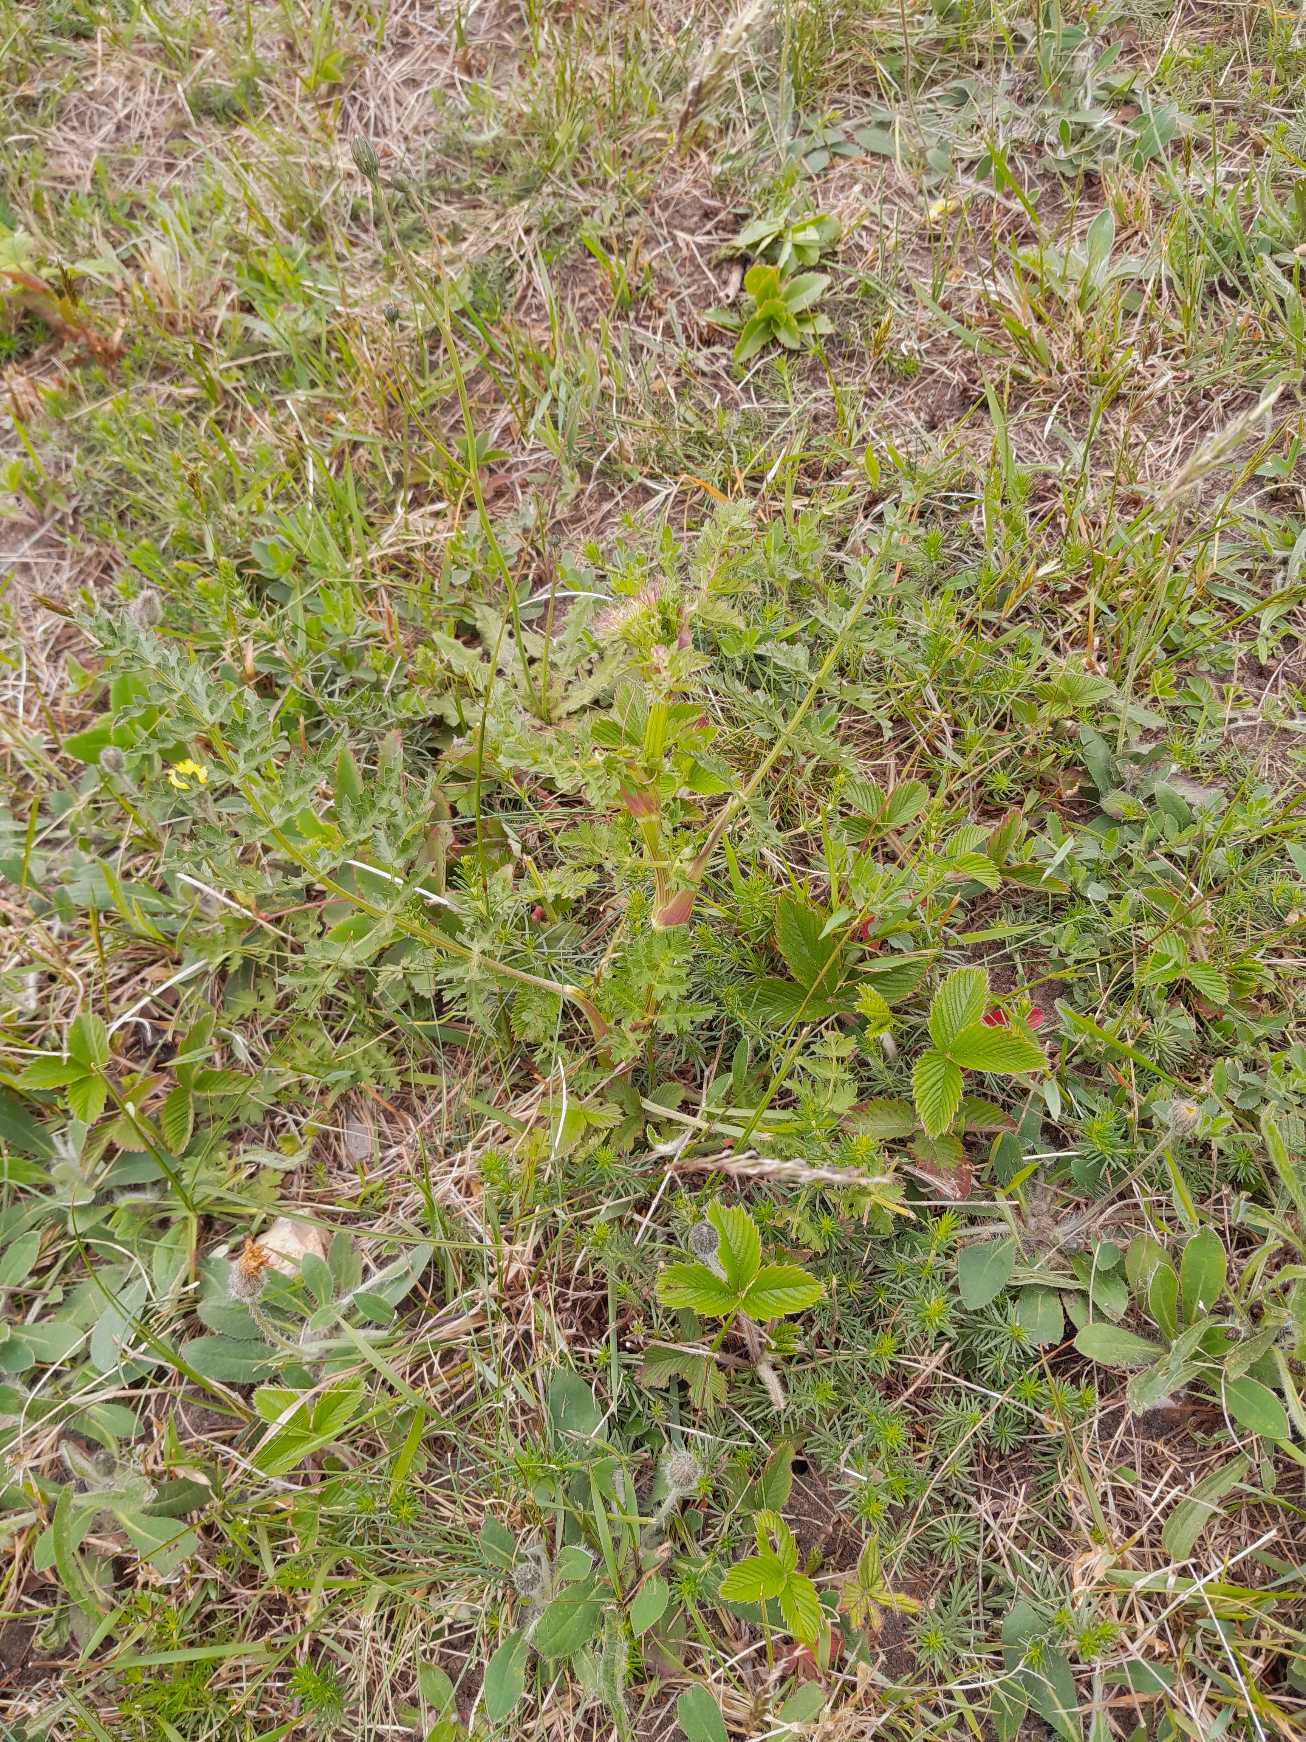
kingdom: Plantae
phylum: Tracheophyta
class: Magnoliopsida
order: Apiales
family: Apiaceae
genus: Seseli
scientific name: Seseli libanotis
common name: Hjorterod
